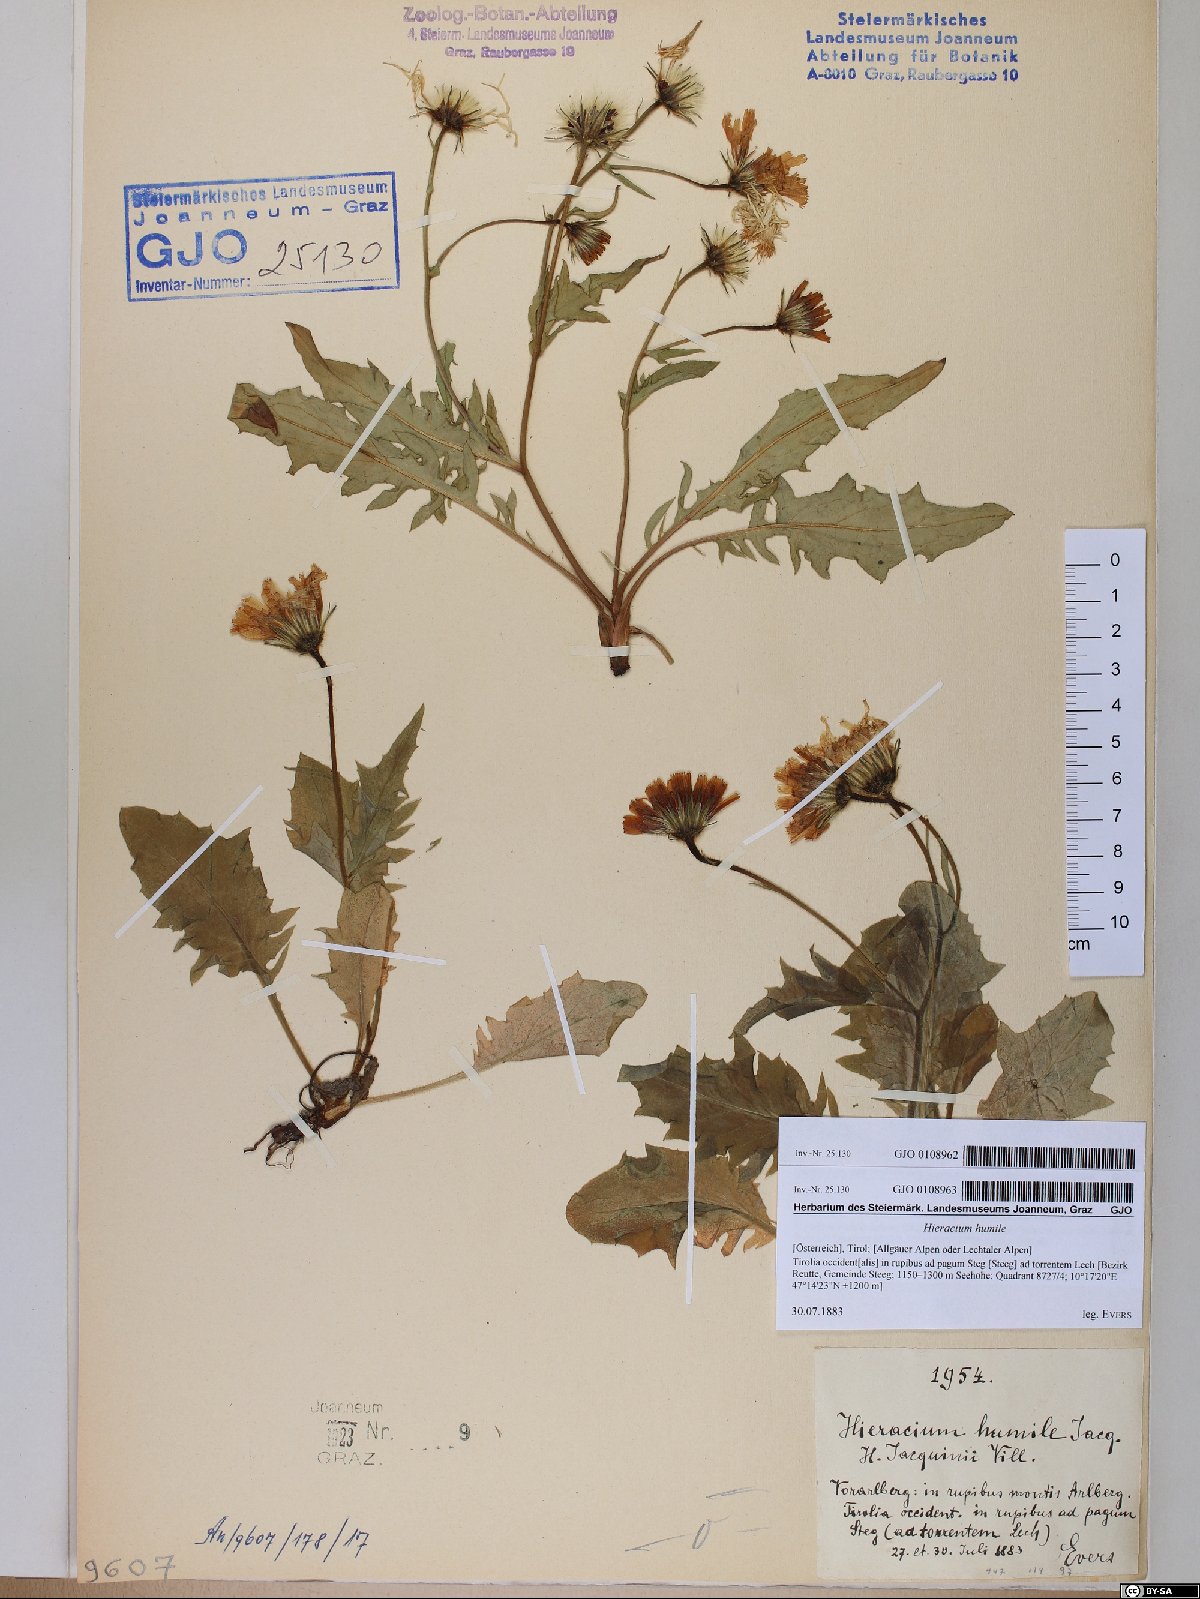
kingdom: Plantae
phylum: Tracheophyta
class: Magnoliopsida
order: Asterales
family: Asteraceae
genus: Hieracium
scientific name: Hieracium humile
